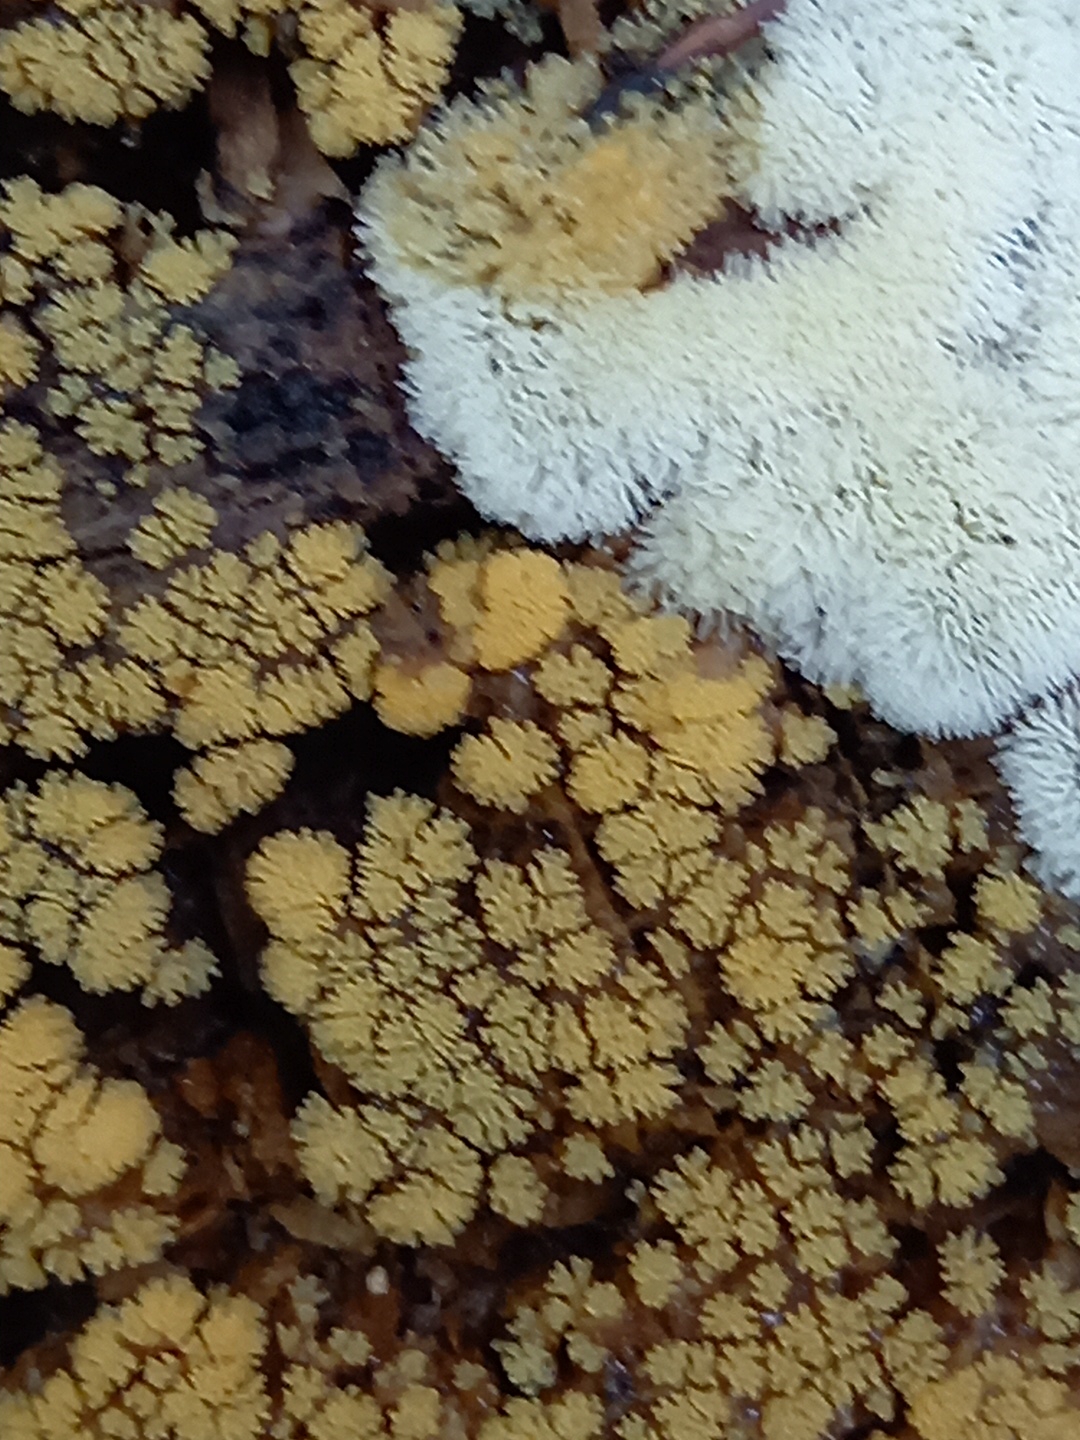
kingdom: Protozoa
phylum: Mycetozoa
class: Protosteliomycetes
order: Ceratiomyxales
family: Ceratiomyxaceae
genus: Ceratiomyxa
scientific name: Ceratiomyxa fruticulosa
